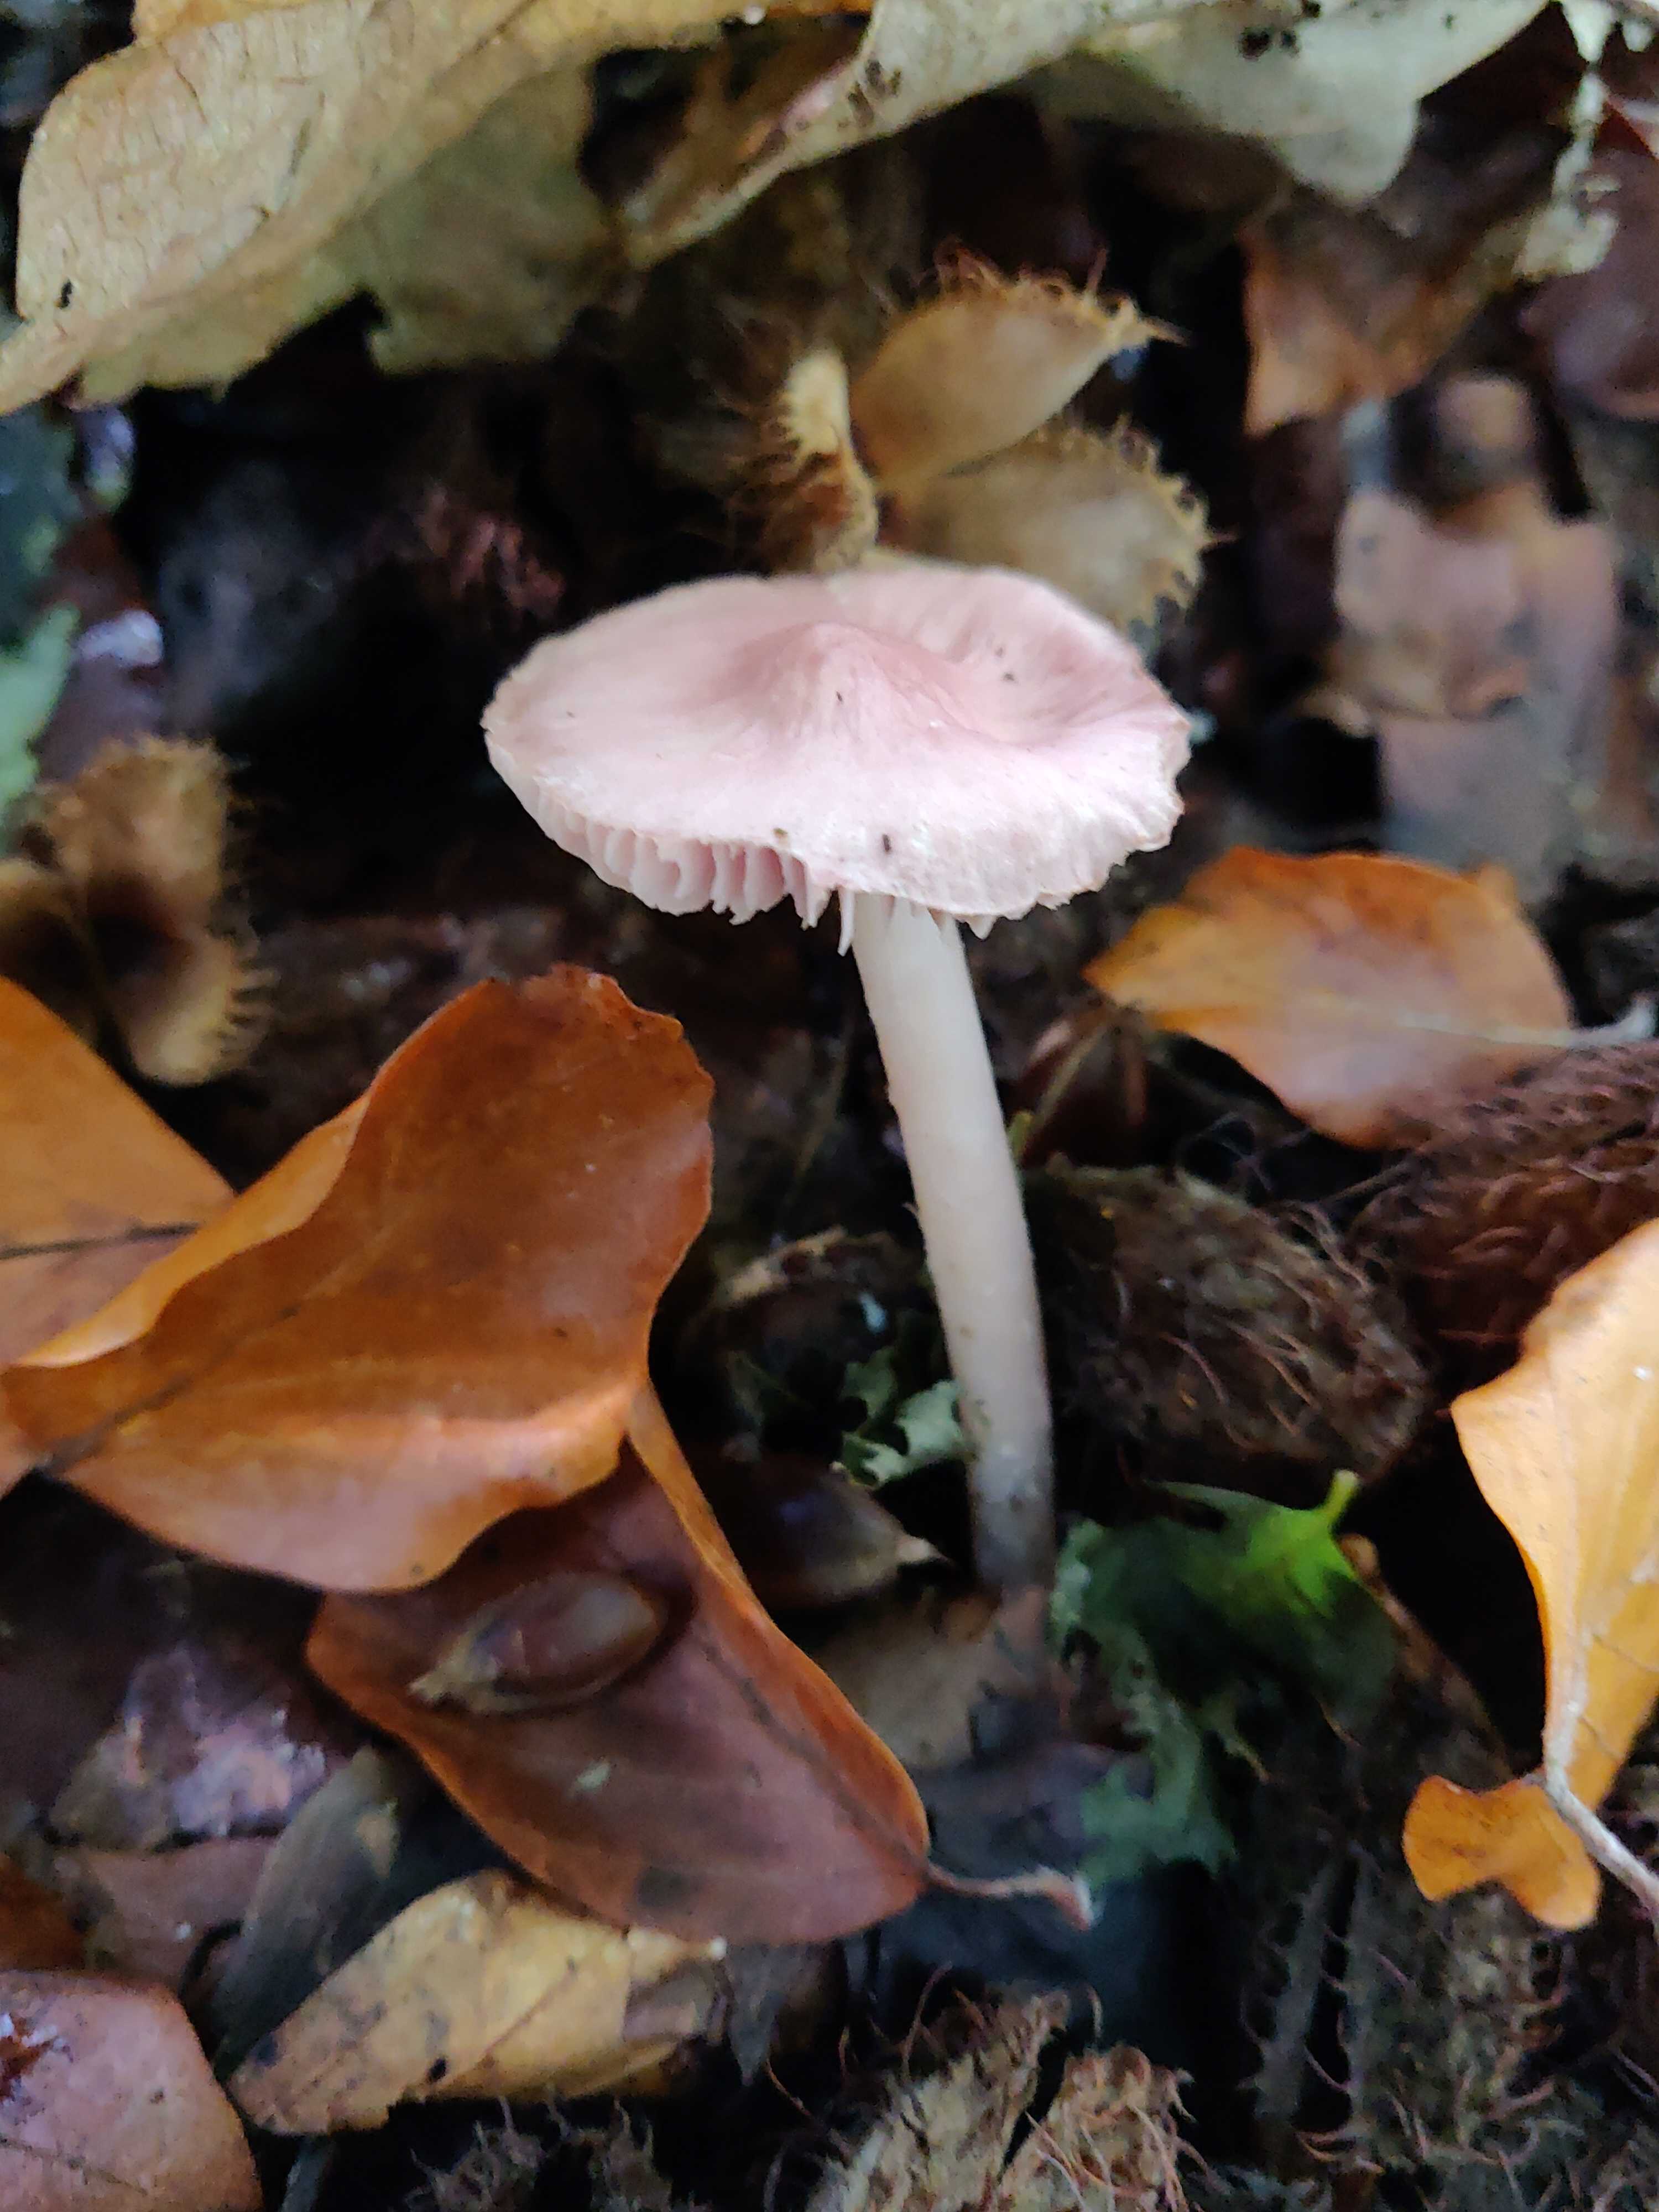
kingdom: Fungi
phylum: Basidiomycota
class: Agaricomycetes
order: Agaricales
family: Mycenaceae
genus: Mycena
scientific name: Mycena rosea
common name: rosa huesvamp
